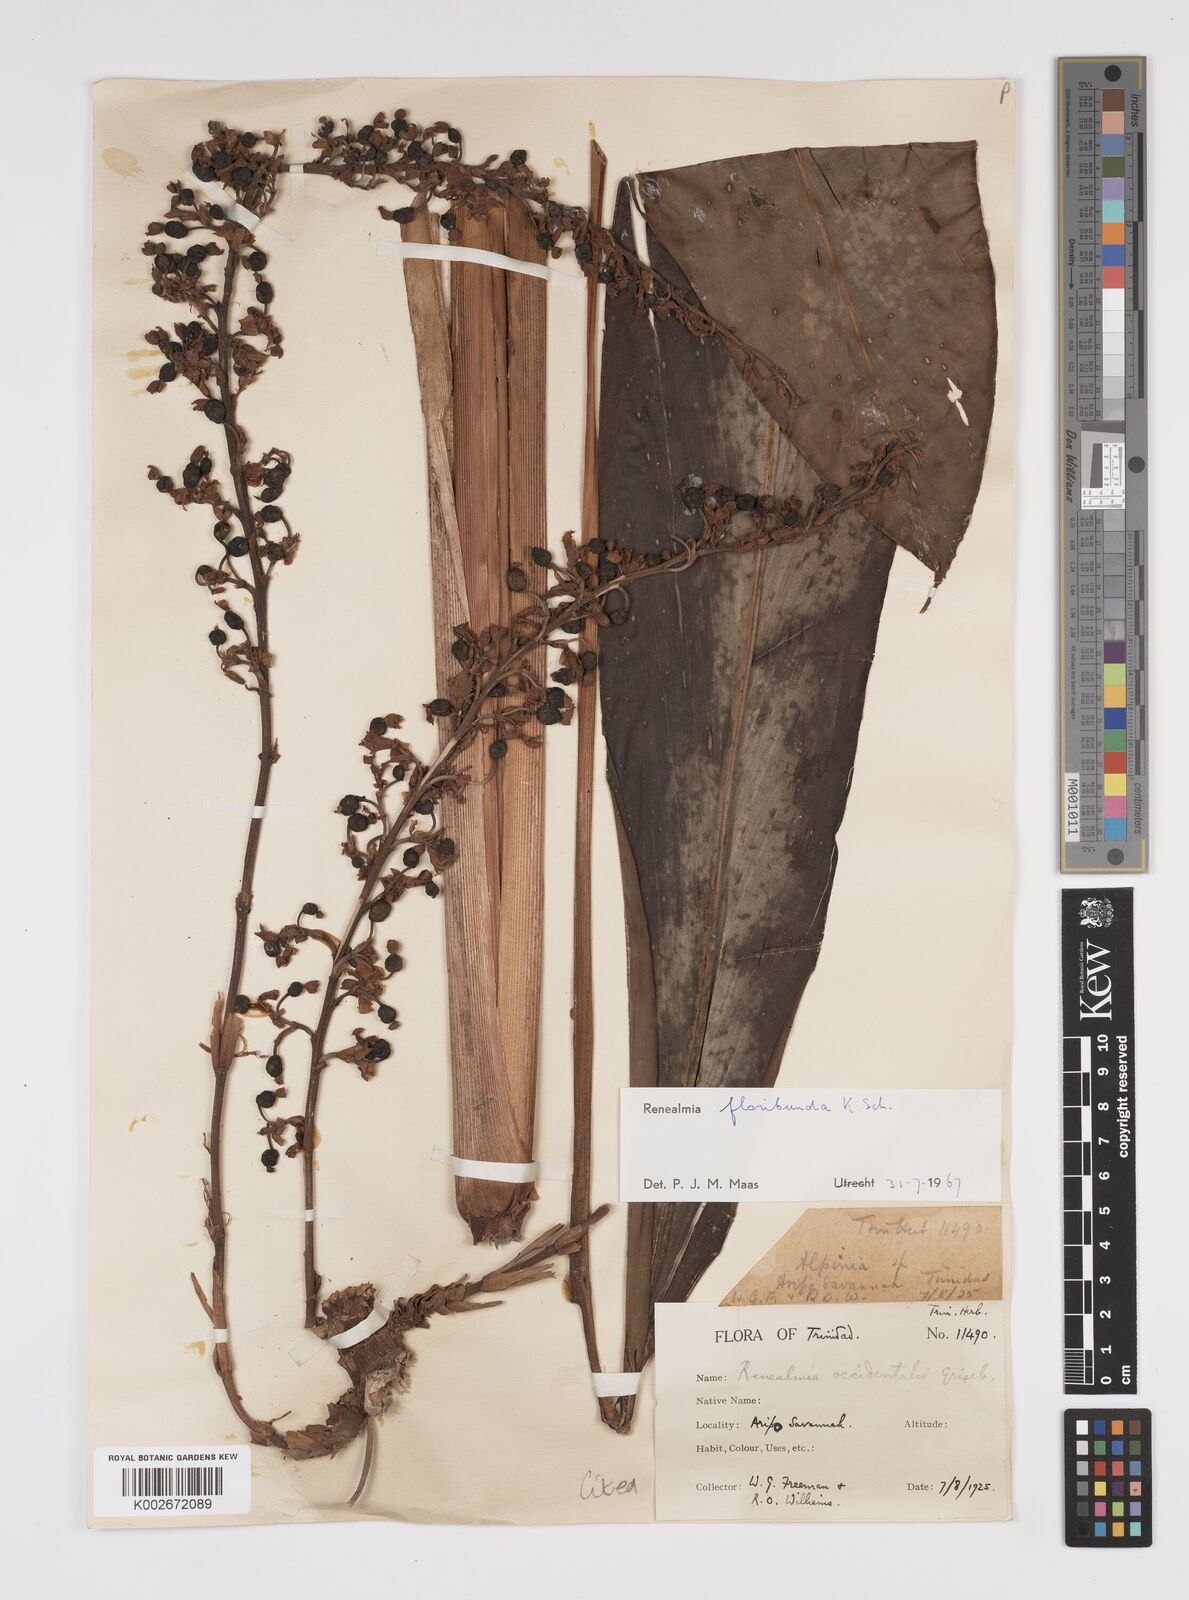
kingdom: Plantae
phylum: Tracheophyta
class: Liliopsida
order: Zingiberales
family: Zingiberaceae
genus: Renealmia
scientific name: Renealmia floribunda
